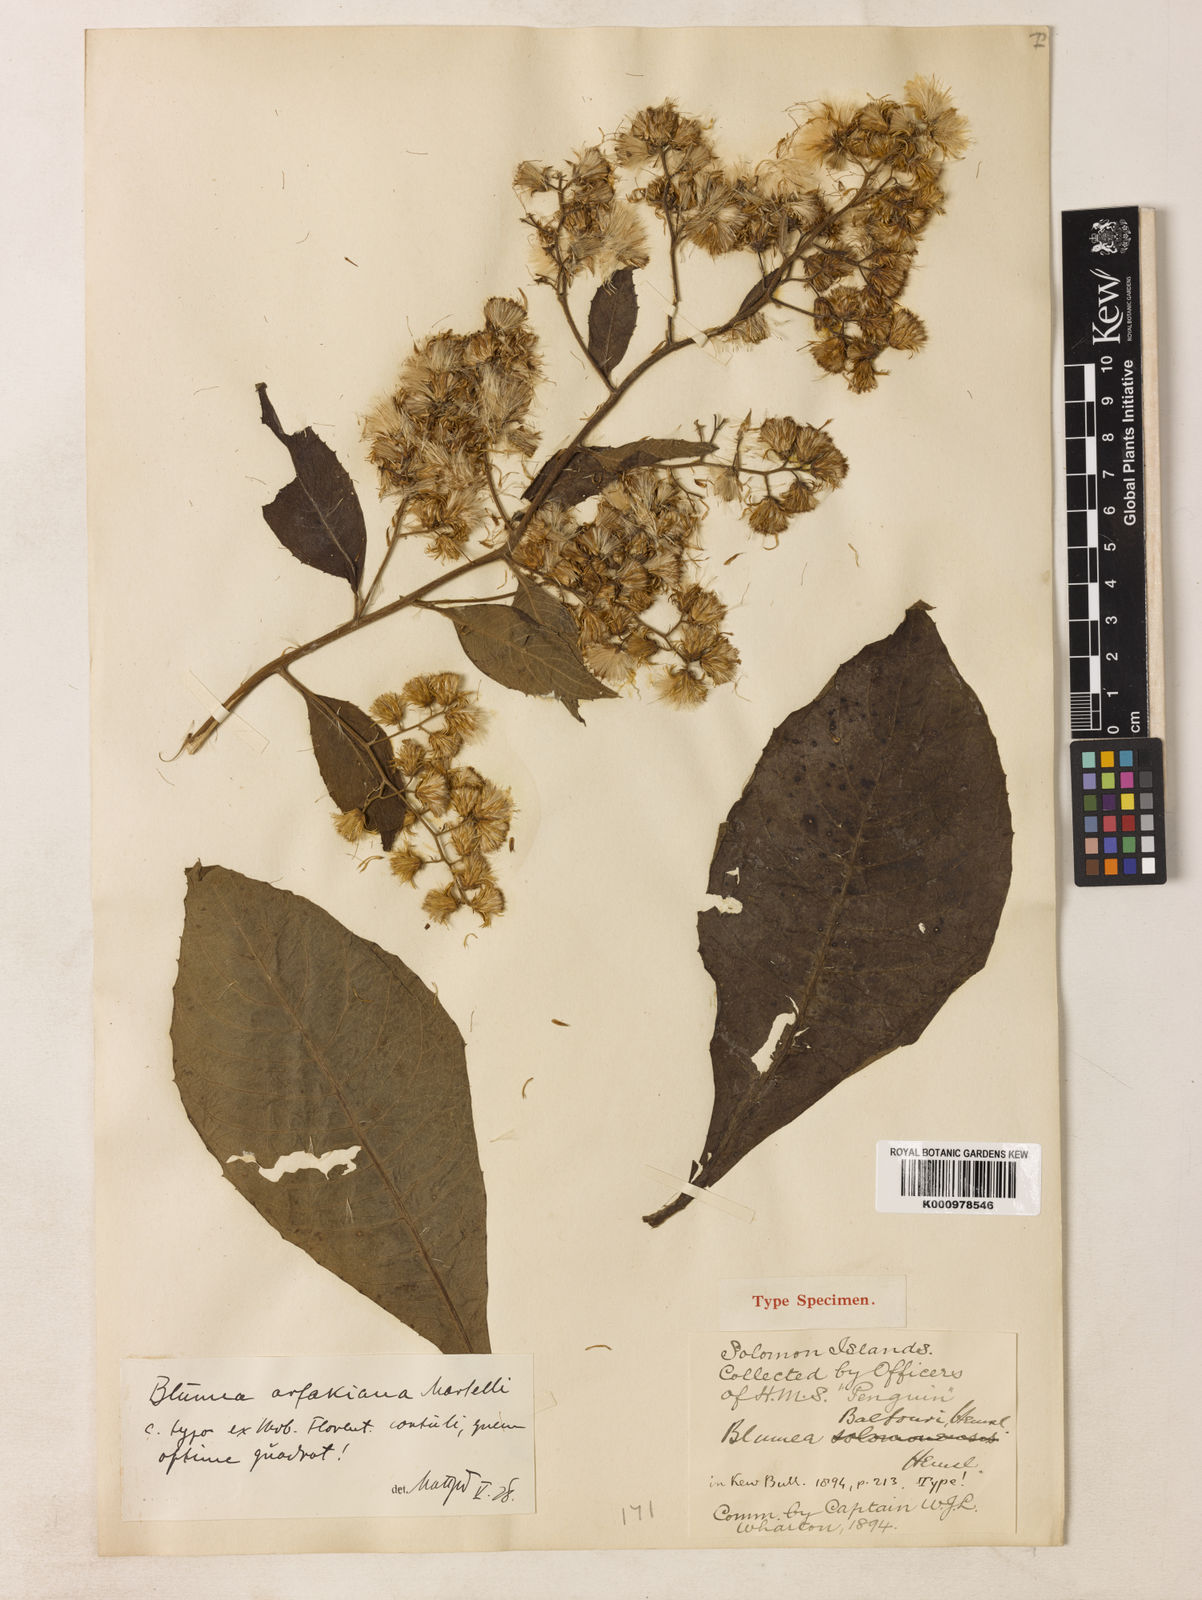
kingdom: Plantae
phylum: Tracheophyta
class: Magnoliopsida
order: Asterales
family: Asteraceae
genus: Blumea
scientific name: Blumea arfakiana
